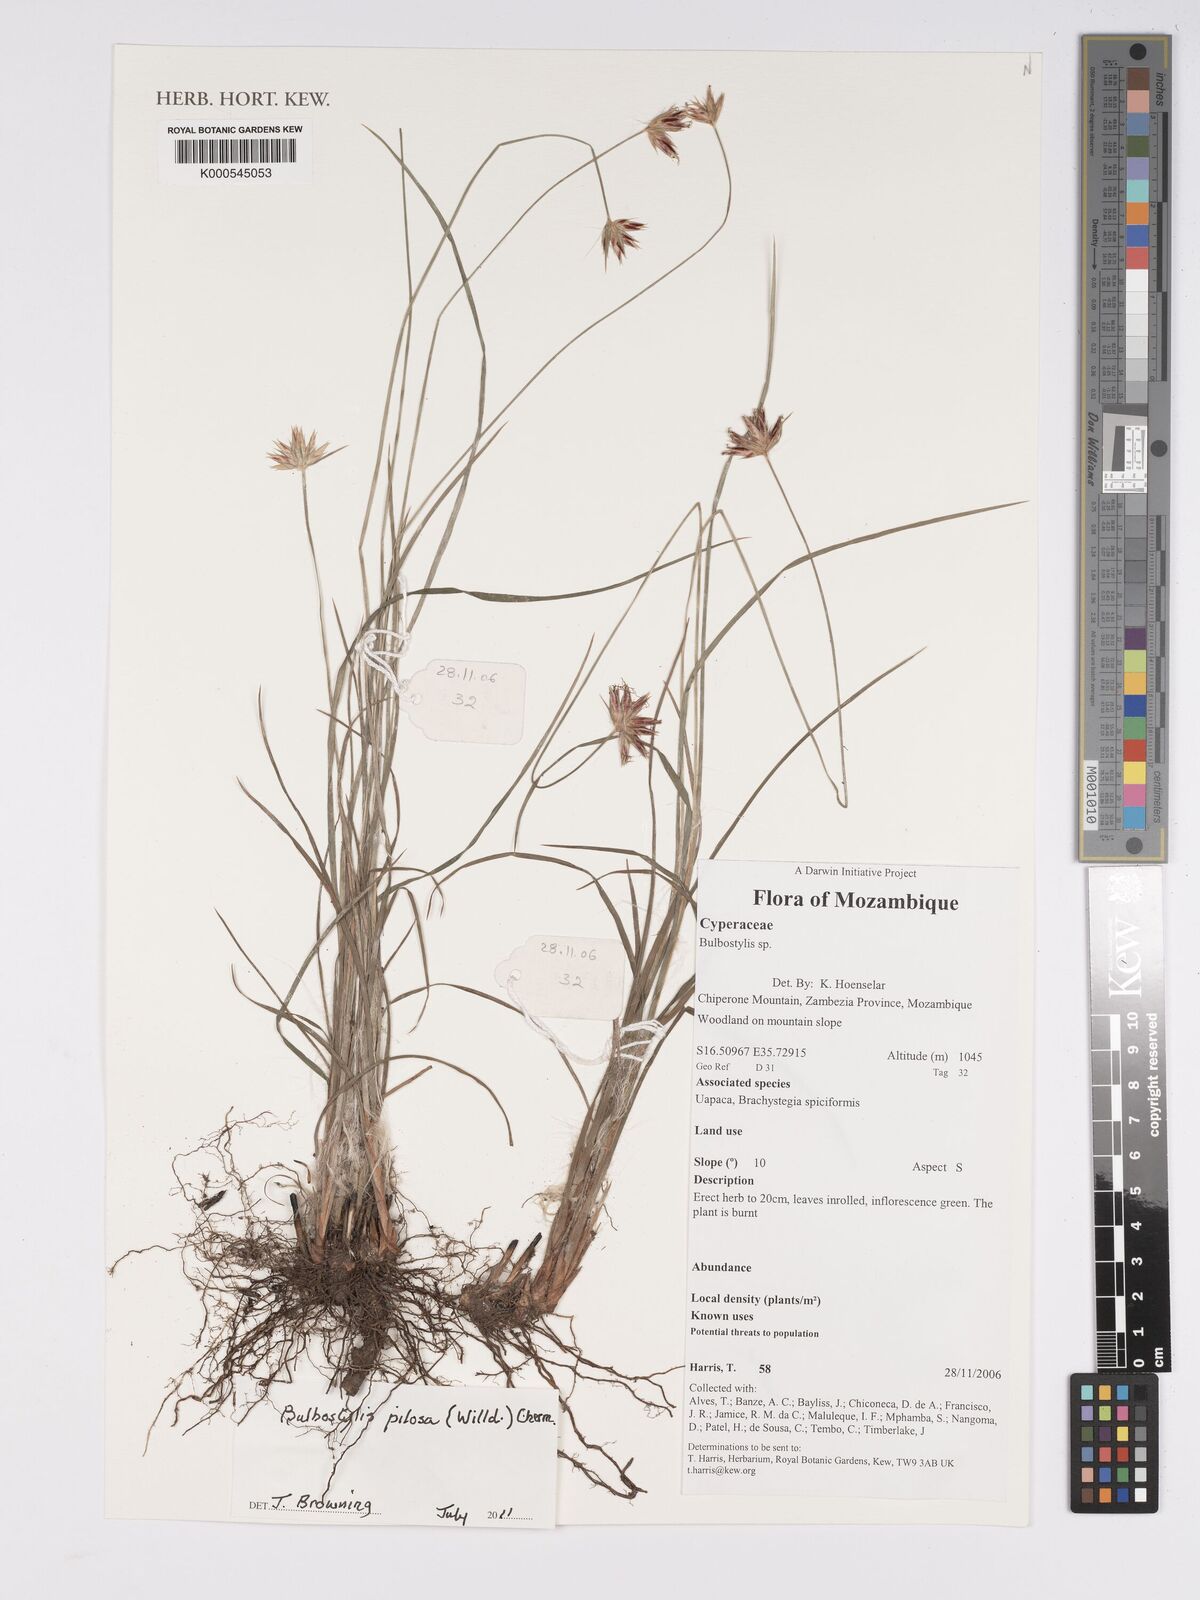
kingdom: Plantae
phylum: Tracheophyta
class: Liliopsida
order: Poales
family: Cyperaceae
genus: Bulbostylis
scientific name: Bulbostylis
